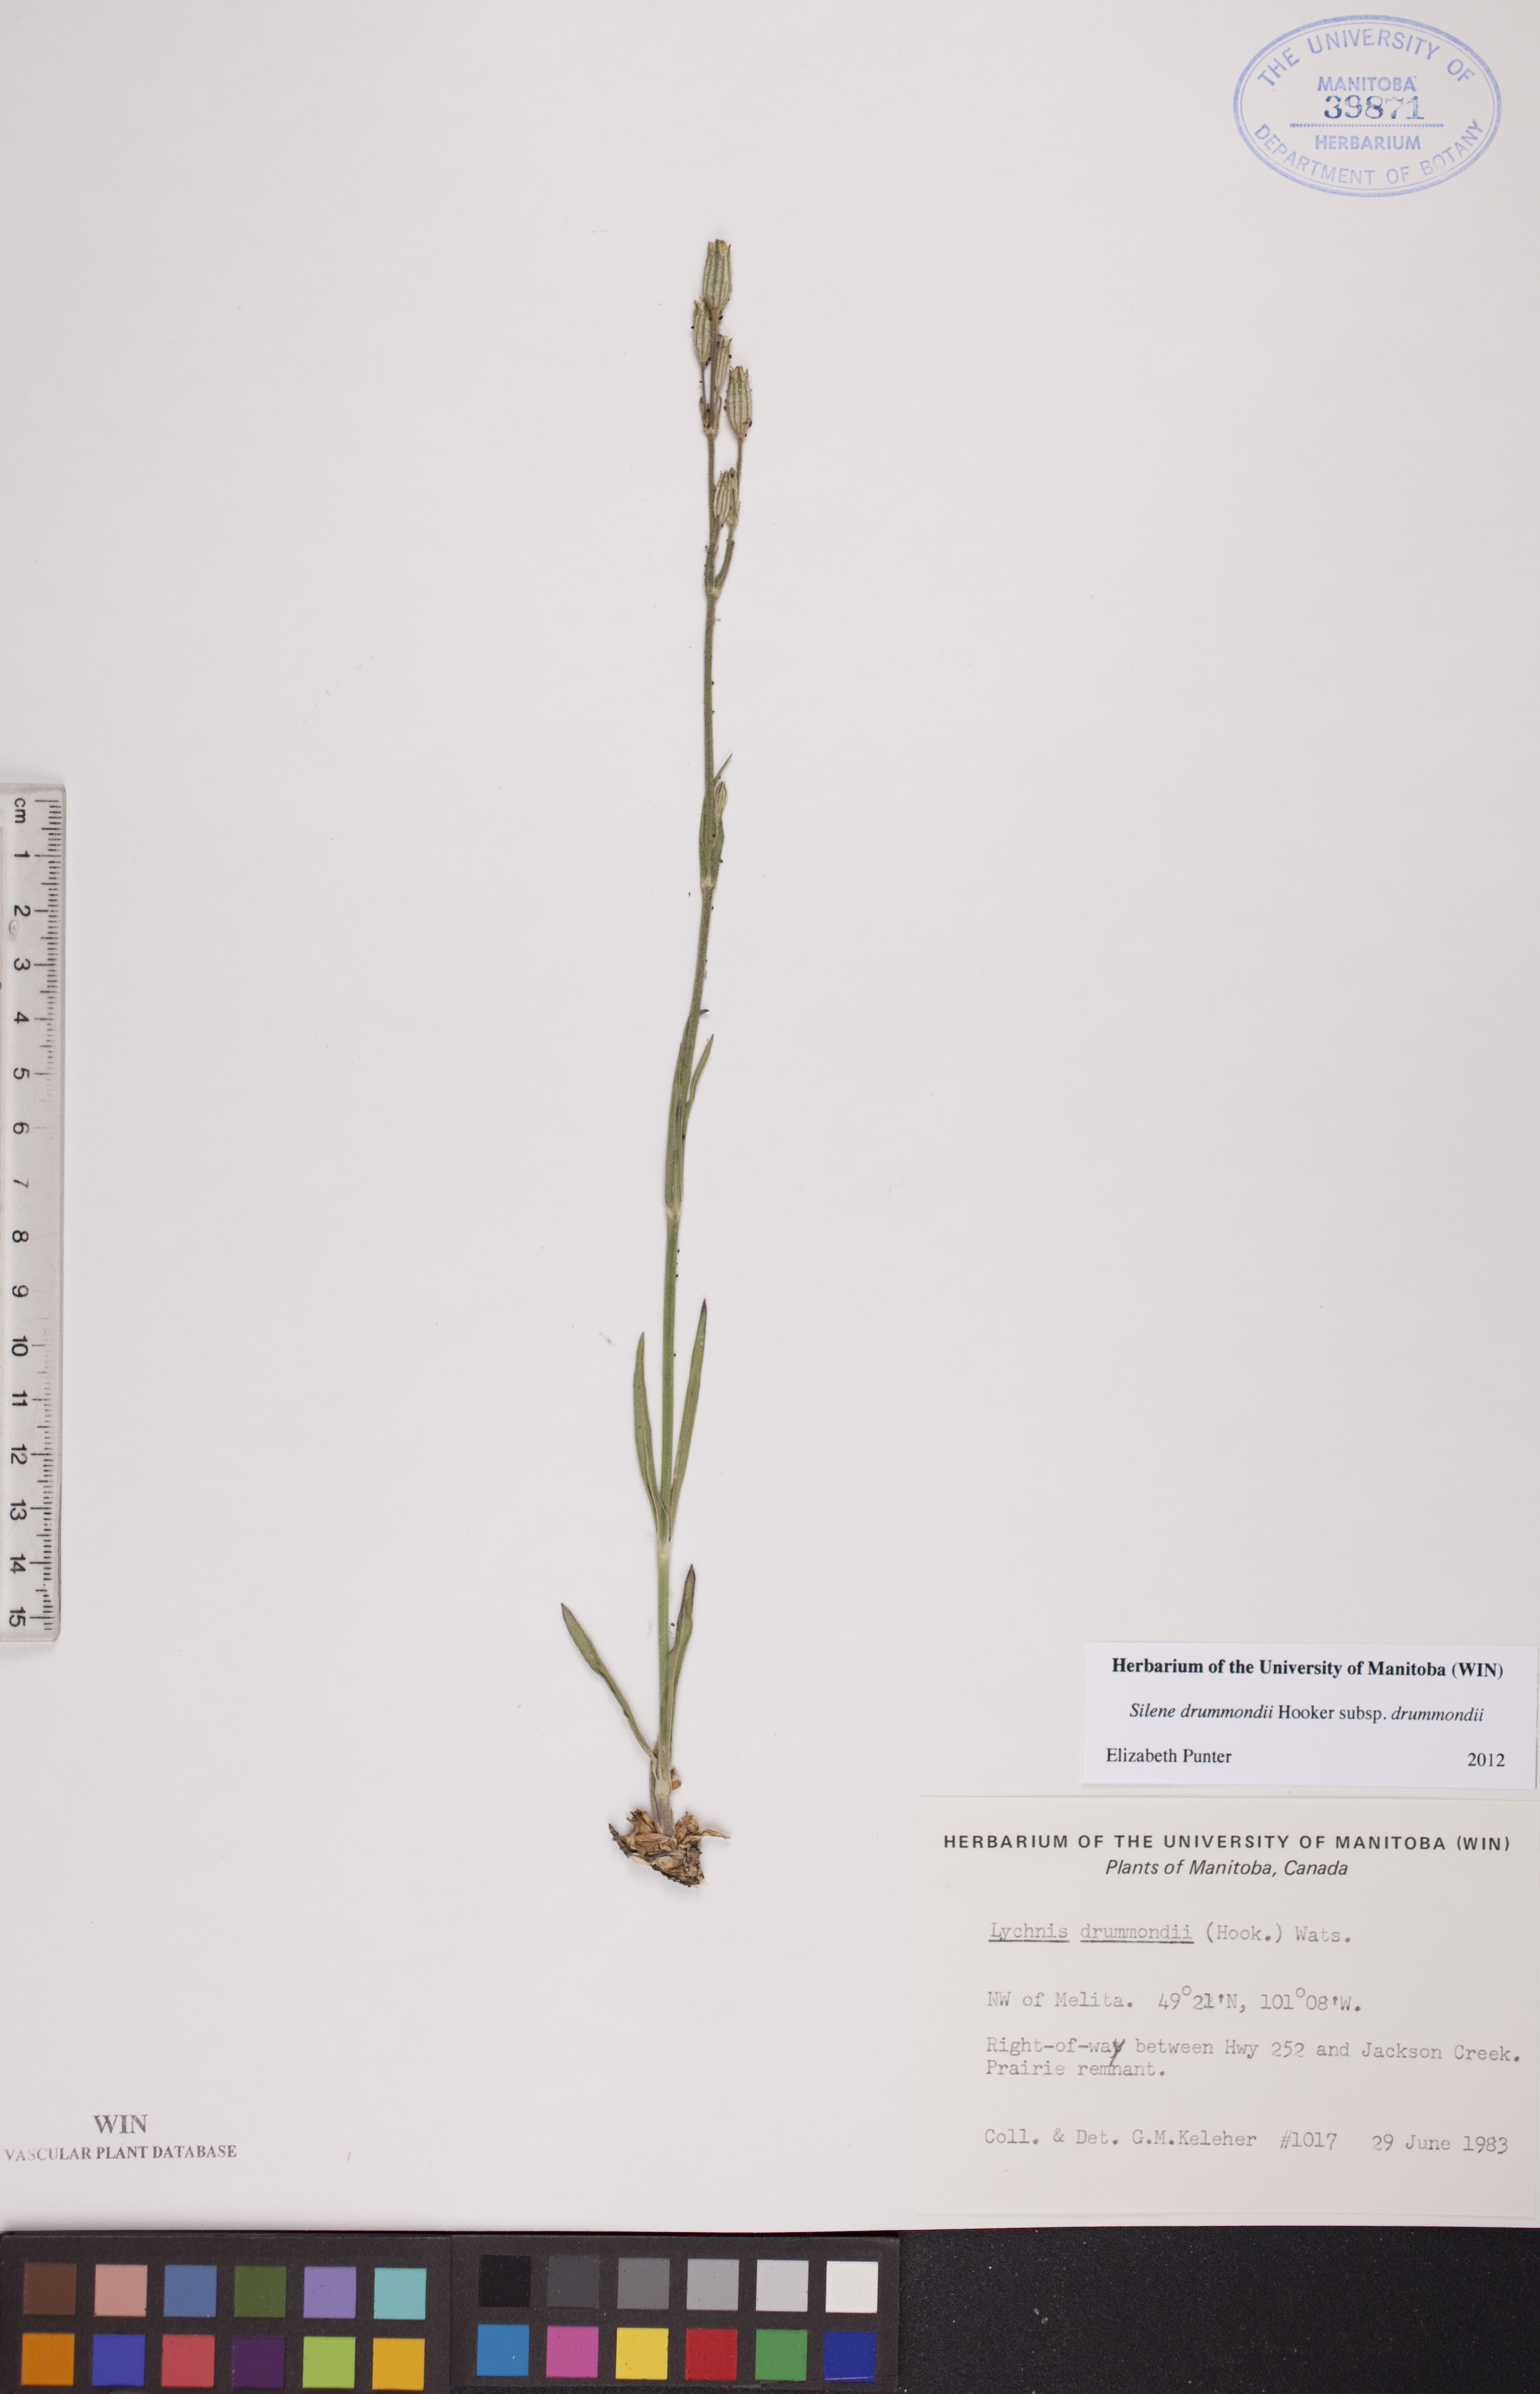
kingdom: Plantae
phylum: Tracheophyta
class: Magnoliopsida
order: Caryophyllales
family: Caryophyllaceae
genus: Silene
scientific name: Silene drummondii
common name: Drummond's catchfly
